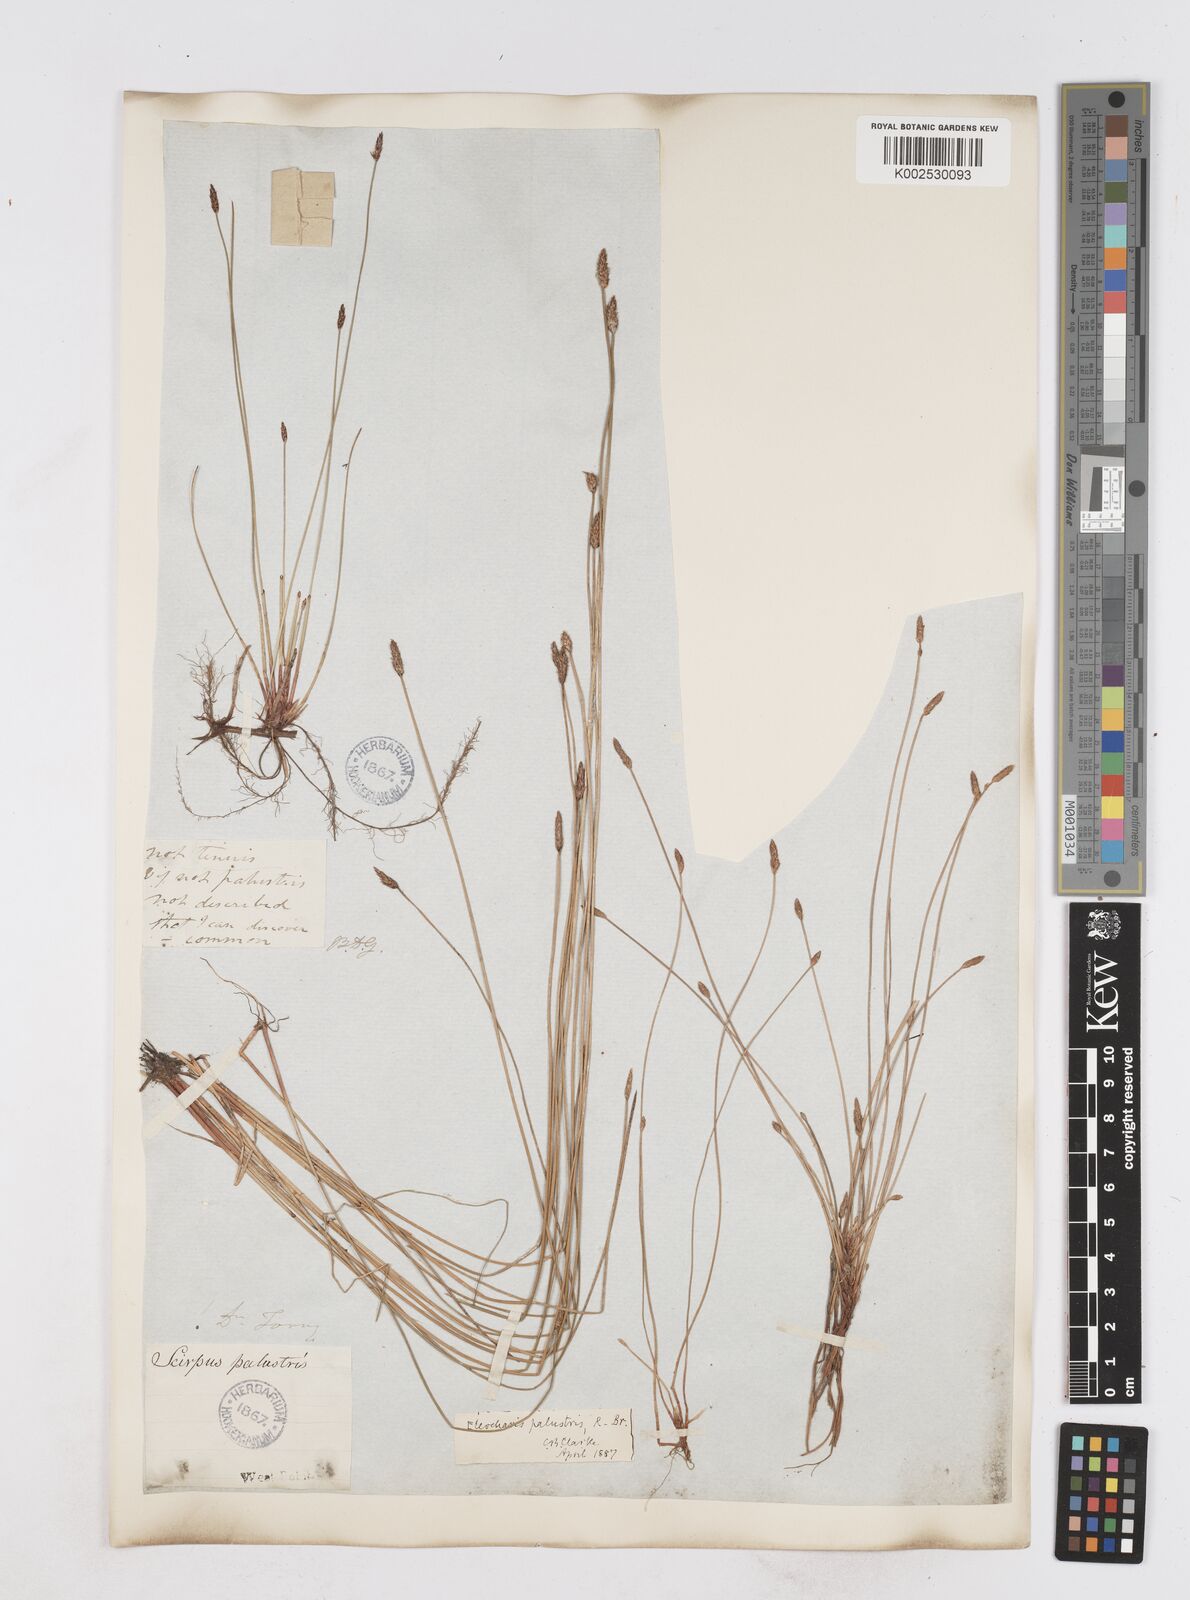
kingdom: Plantae
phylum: Tracheophyta
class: Liliopsida
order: Poales
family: Cyperaceae
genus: Eleocharis
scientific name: Eleocharis palustris
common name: Common spike-rush
